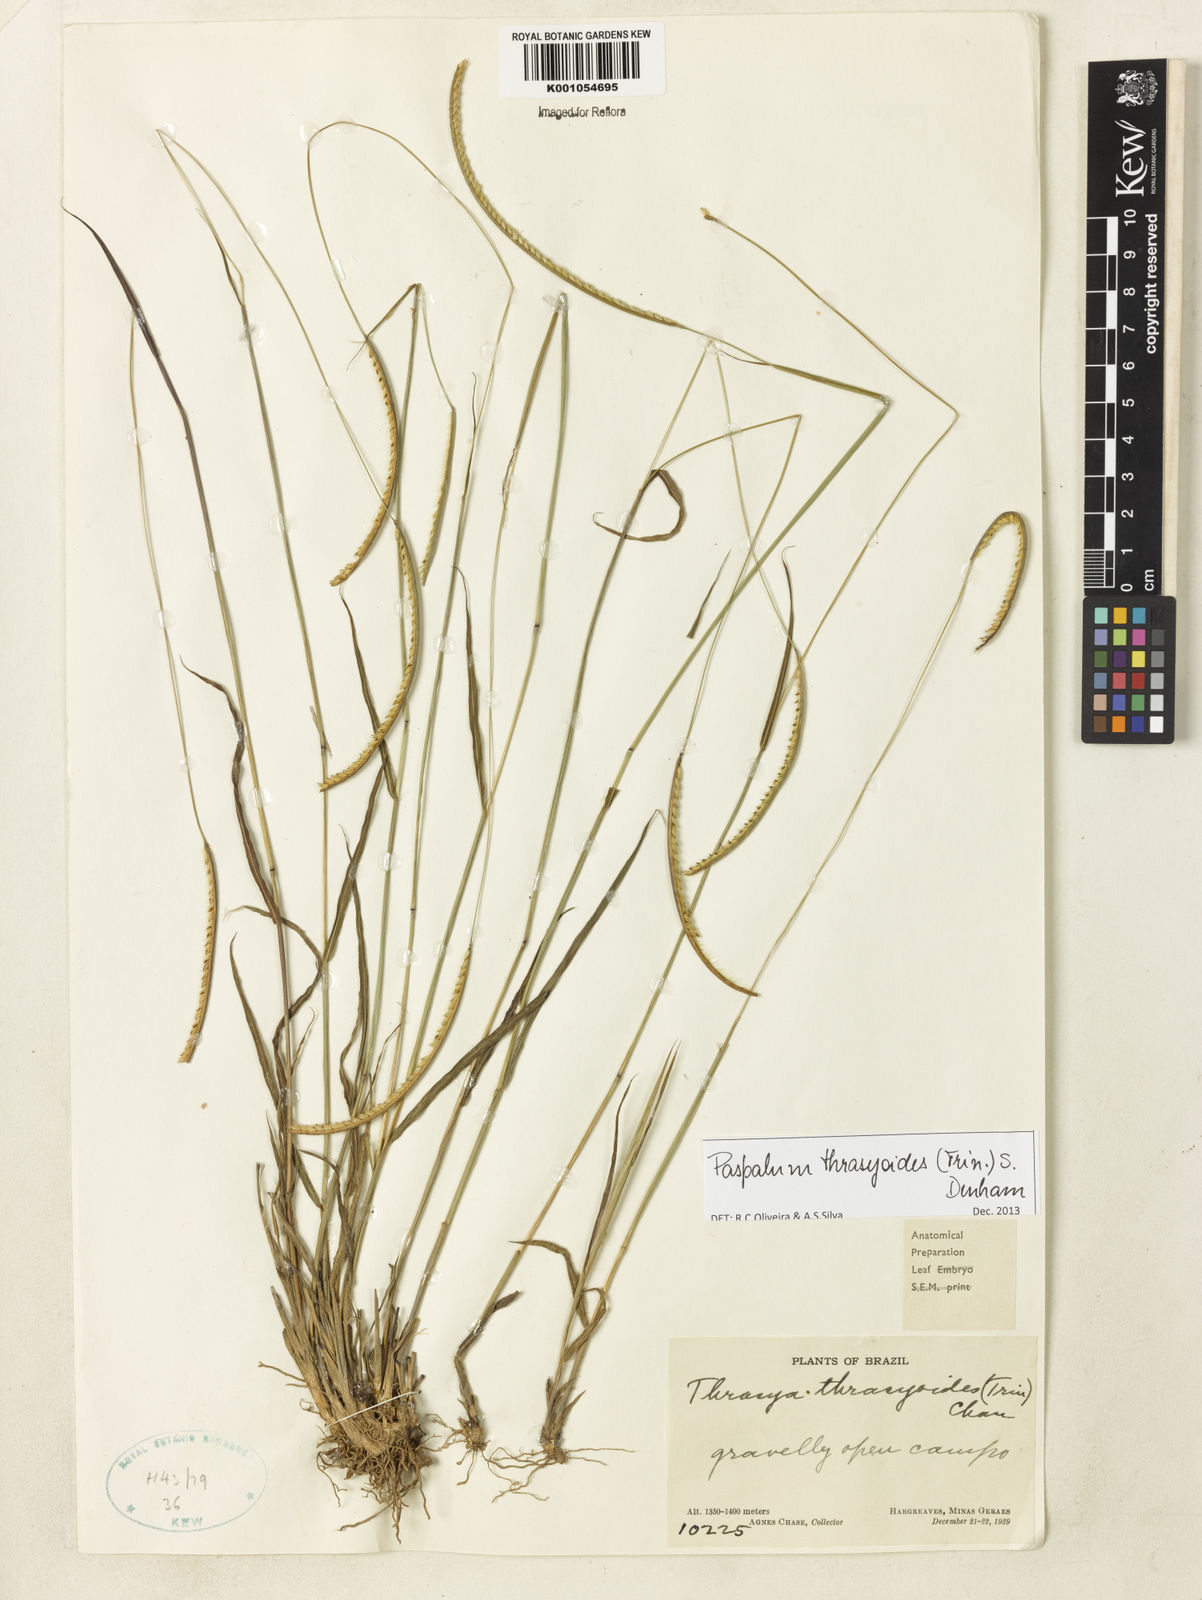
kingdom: Plantae
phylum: Tracheophyta
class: Liliopsida
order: Poales
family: Poaceae
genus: Paspalum
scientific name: Paspalum thrasyoides
